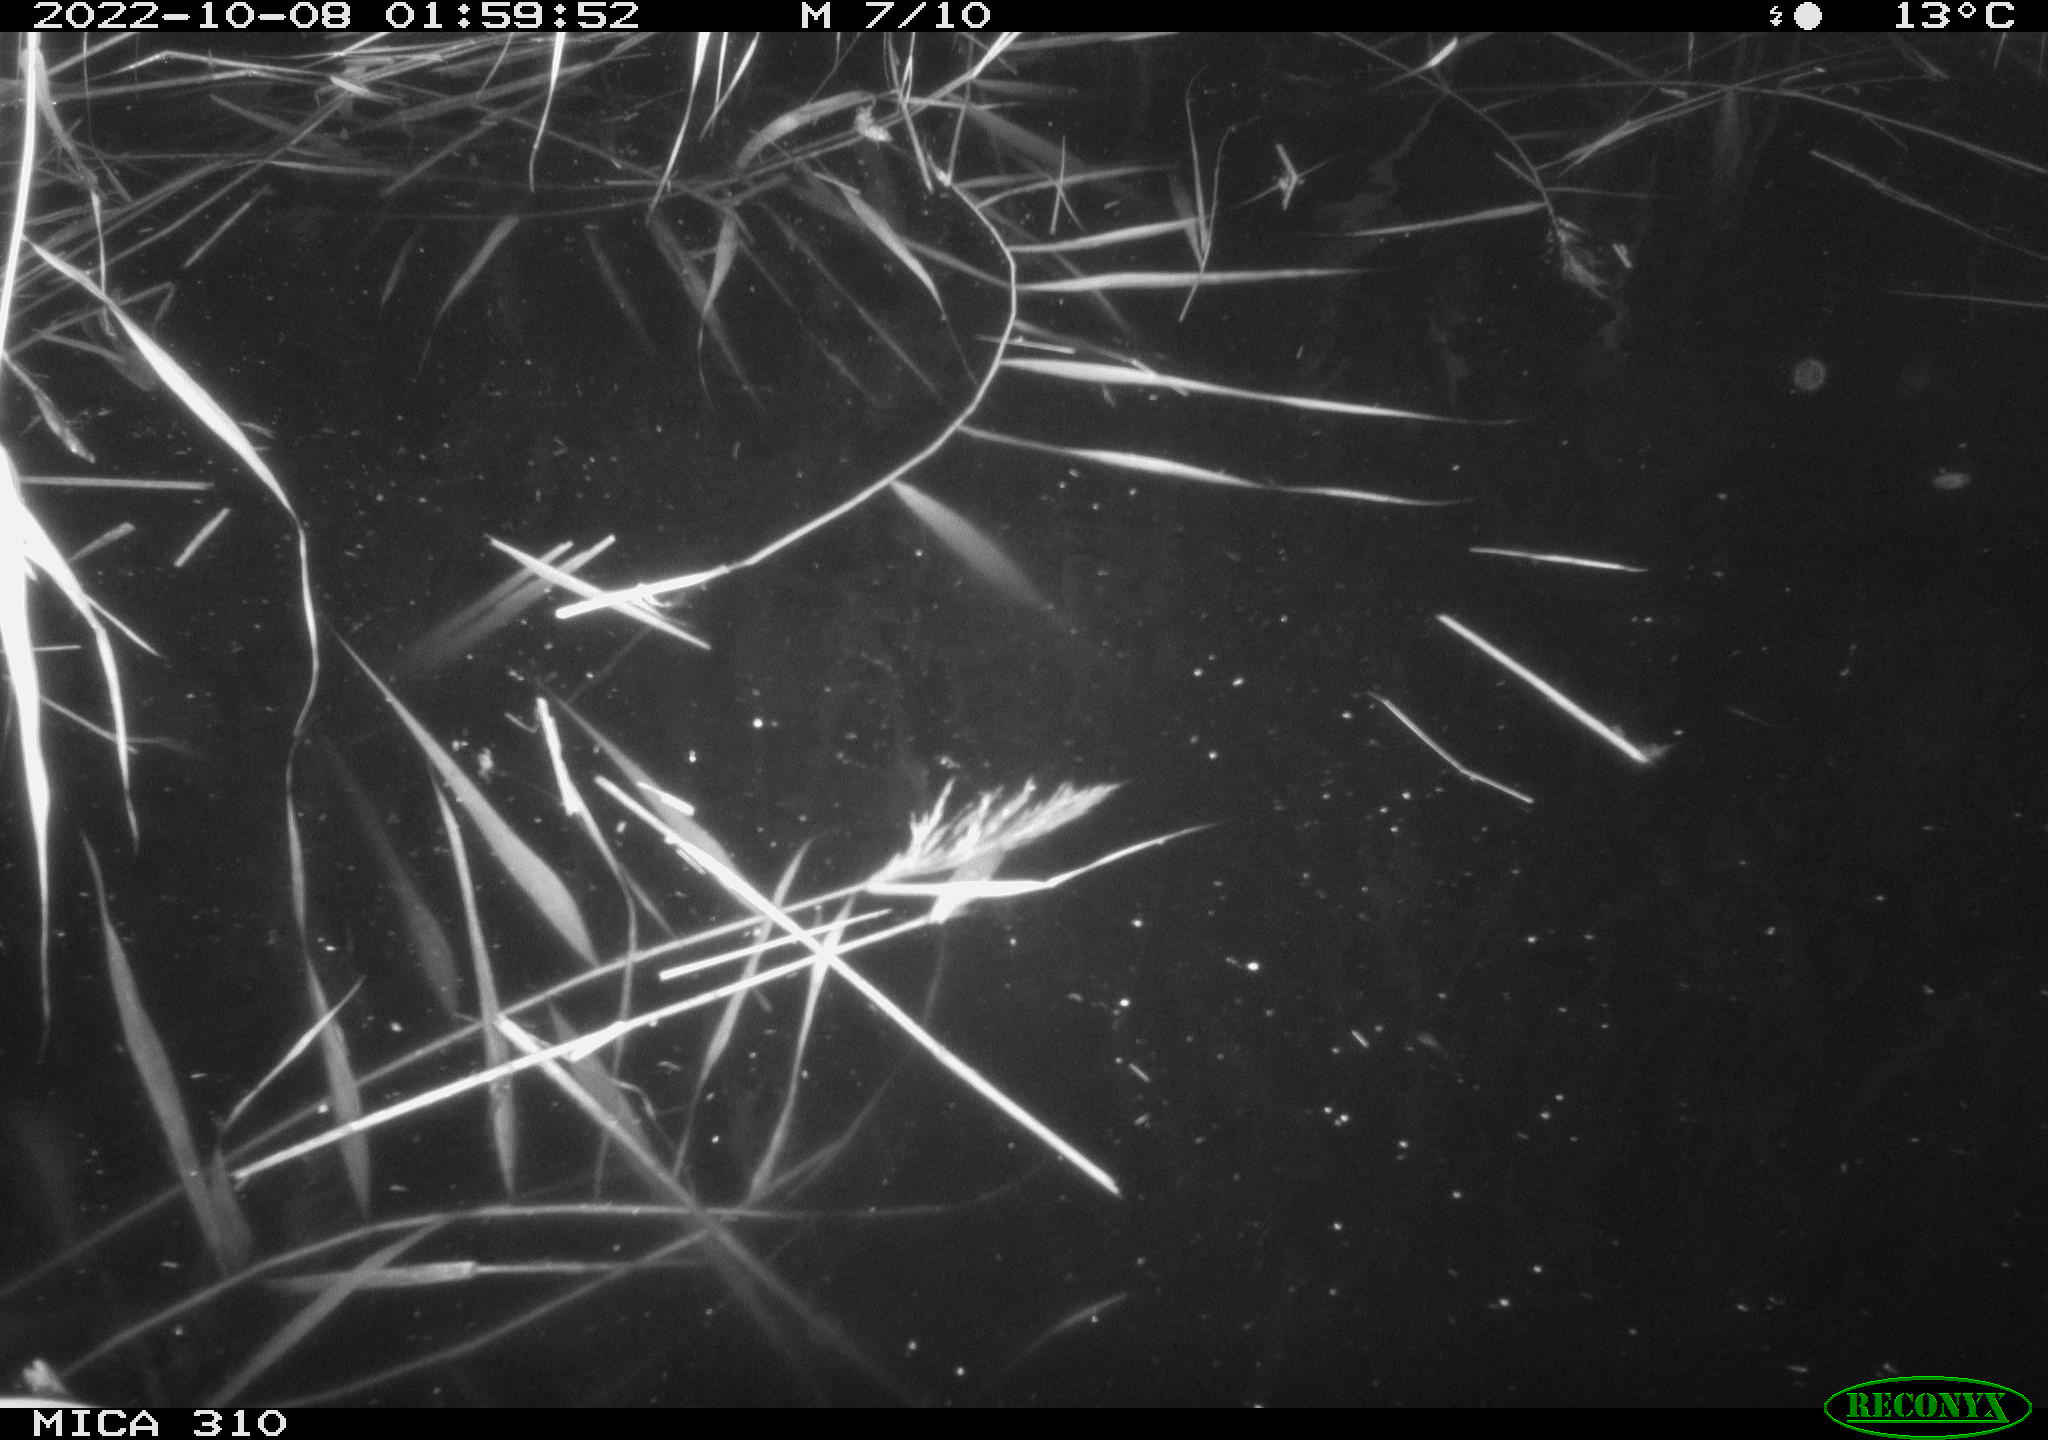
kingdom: Animalia
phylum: Chordata
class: Mammalia
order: Rodentia
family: Muridae
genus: Rattus
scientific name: Rattus norvegicus
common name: Brown rat
